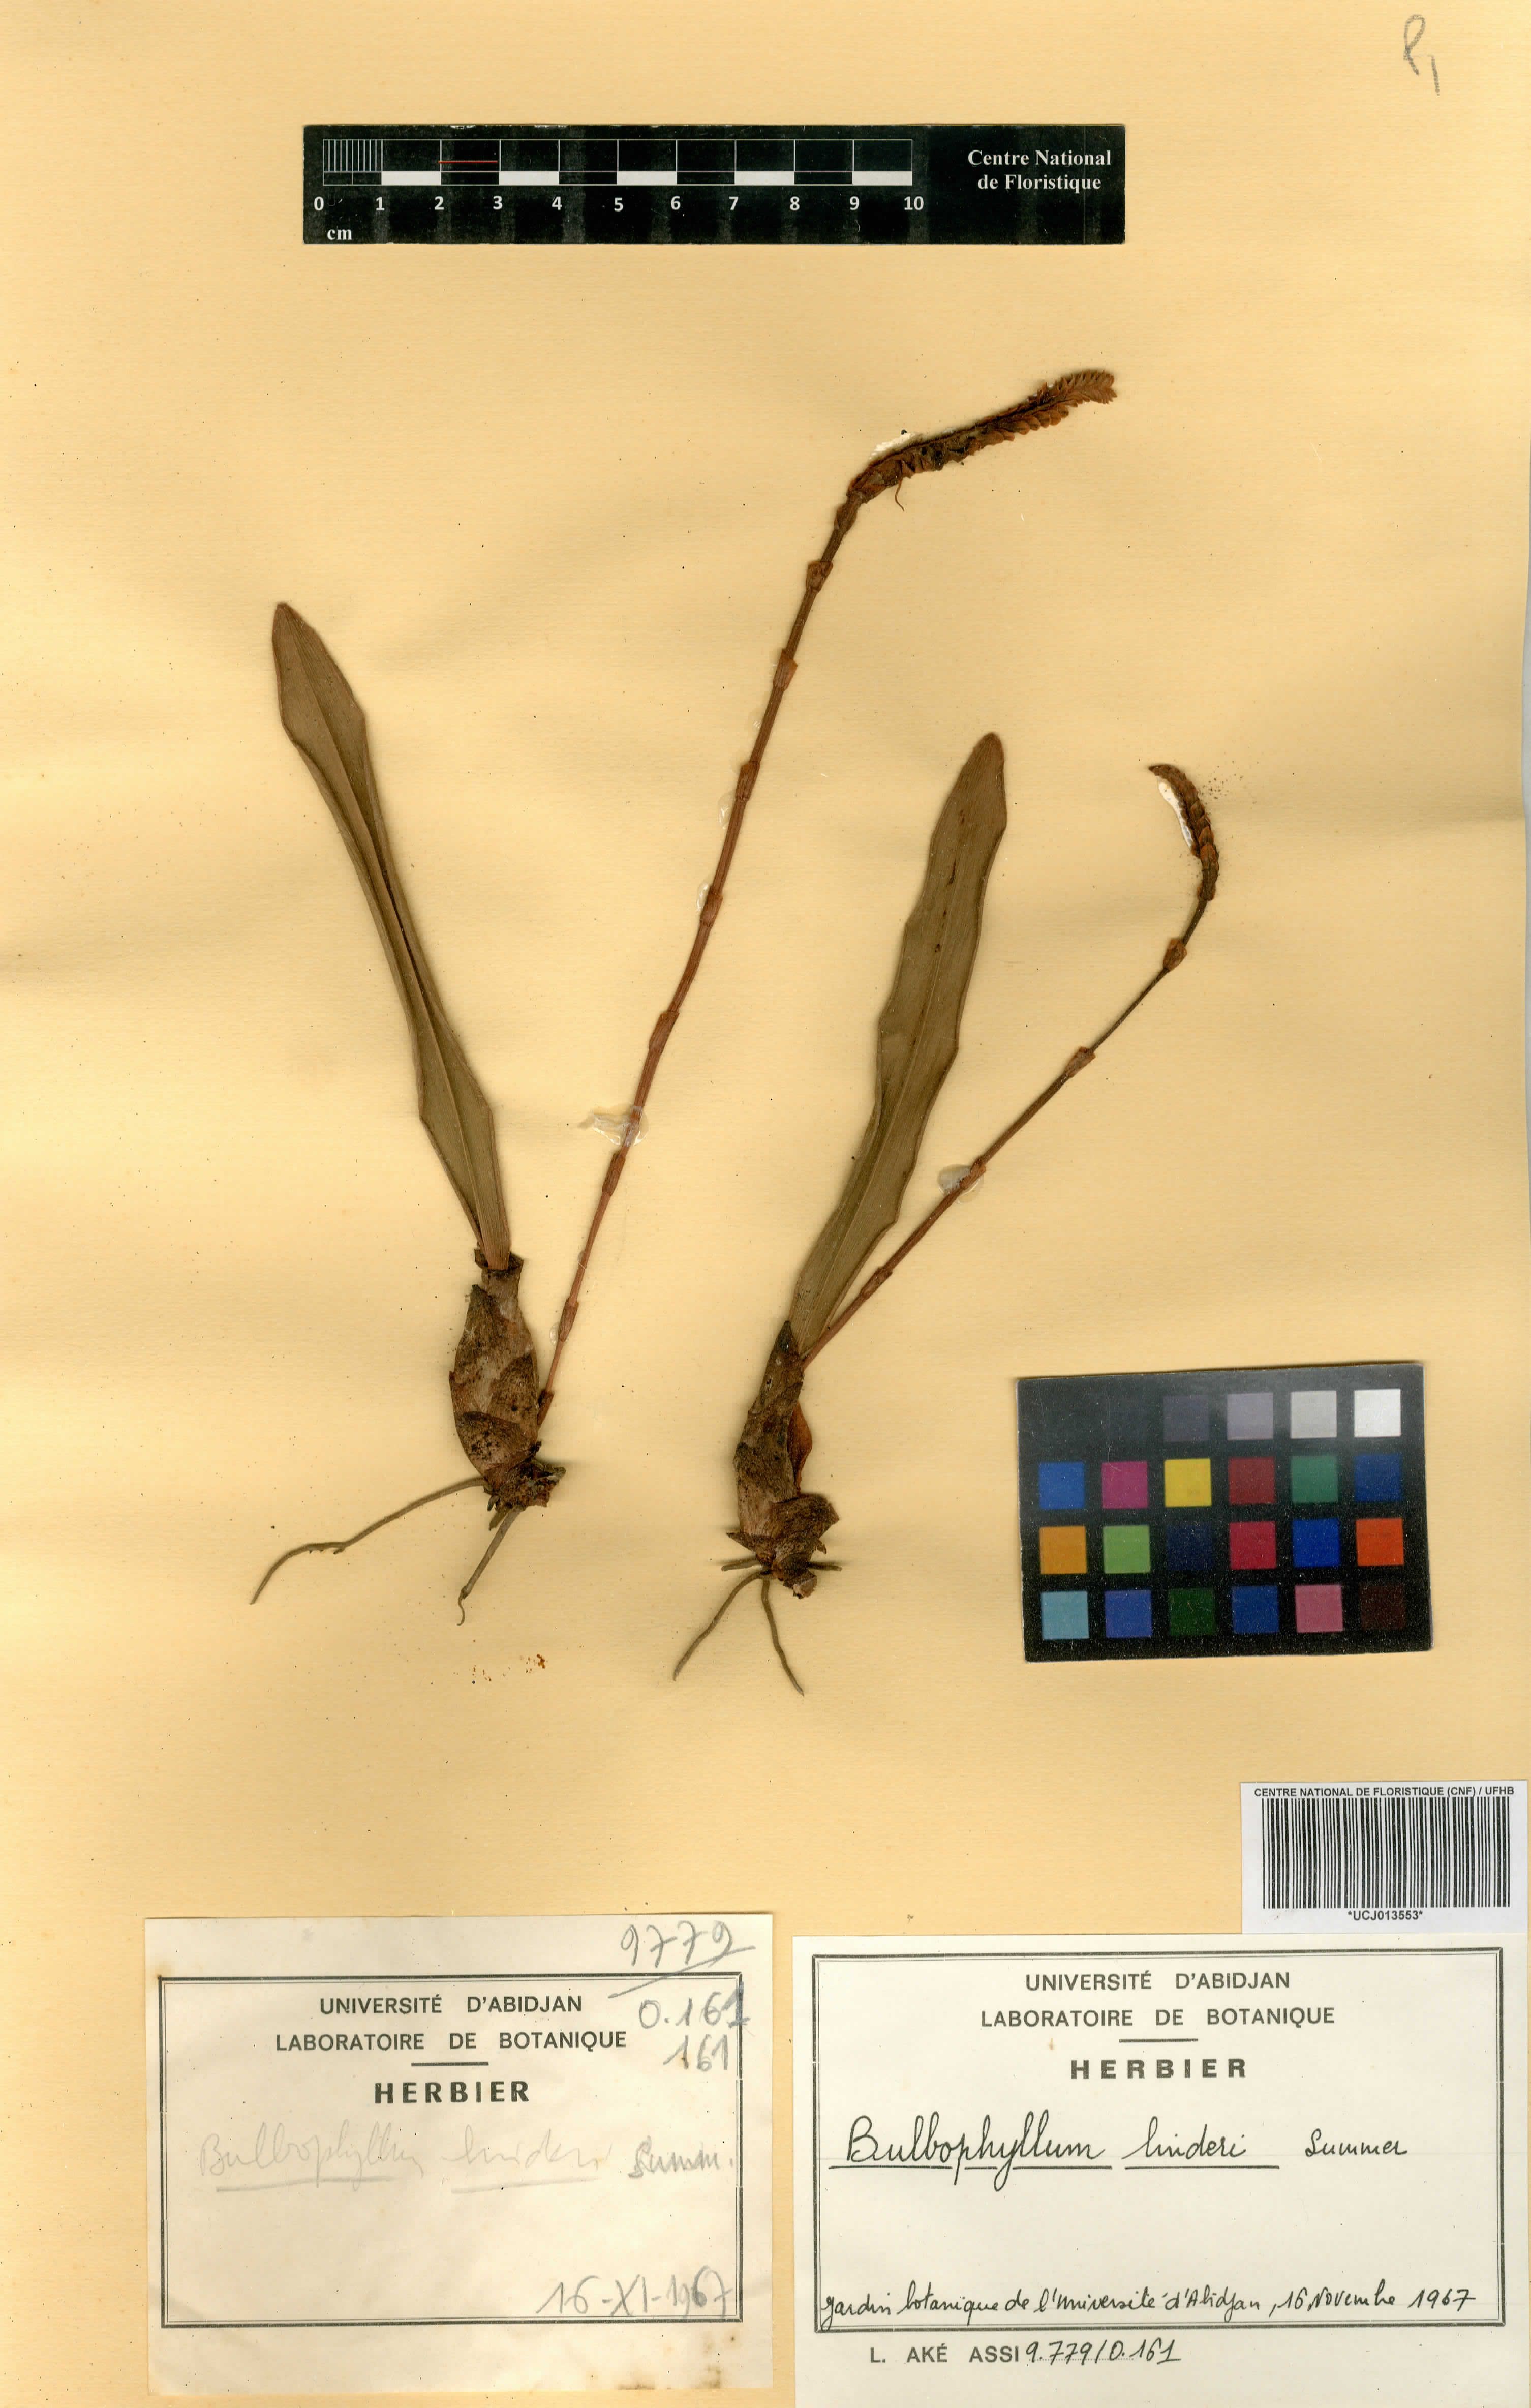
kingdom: Plantae
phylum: Tracheophyta
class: Liliopsida
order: Asparagales
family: Orchidaceae
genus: Bulbophyllum
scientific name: Bulbophyllum leucorhachis
